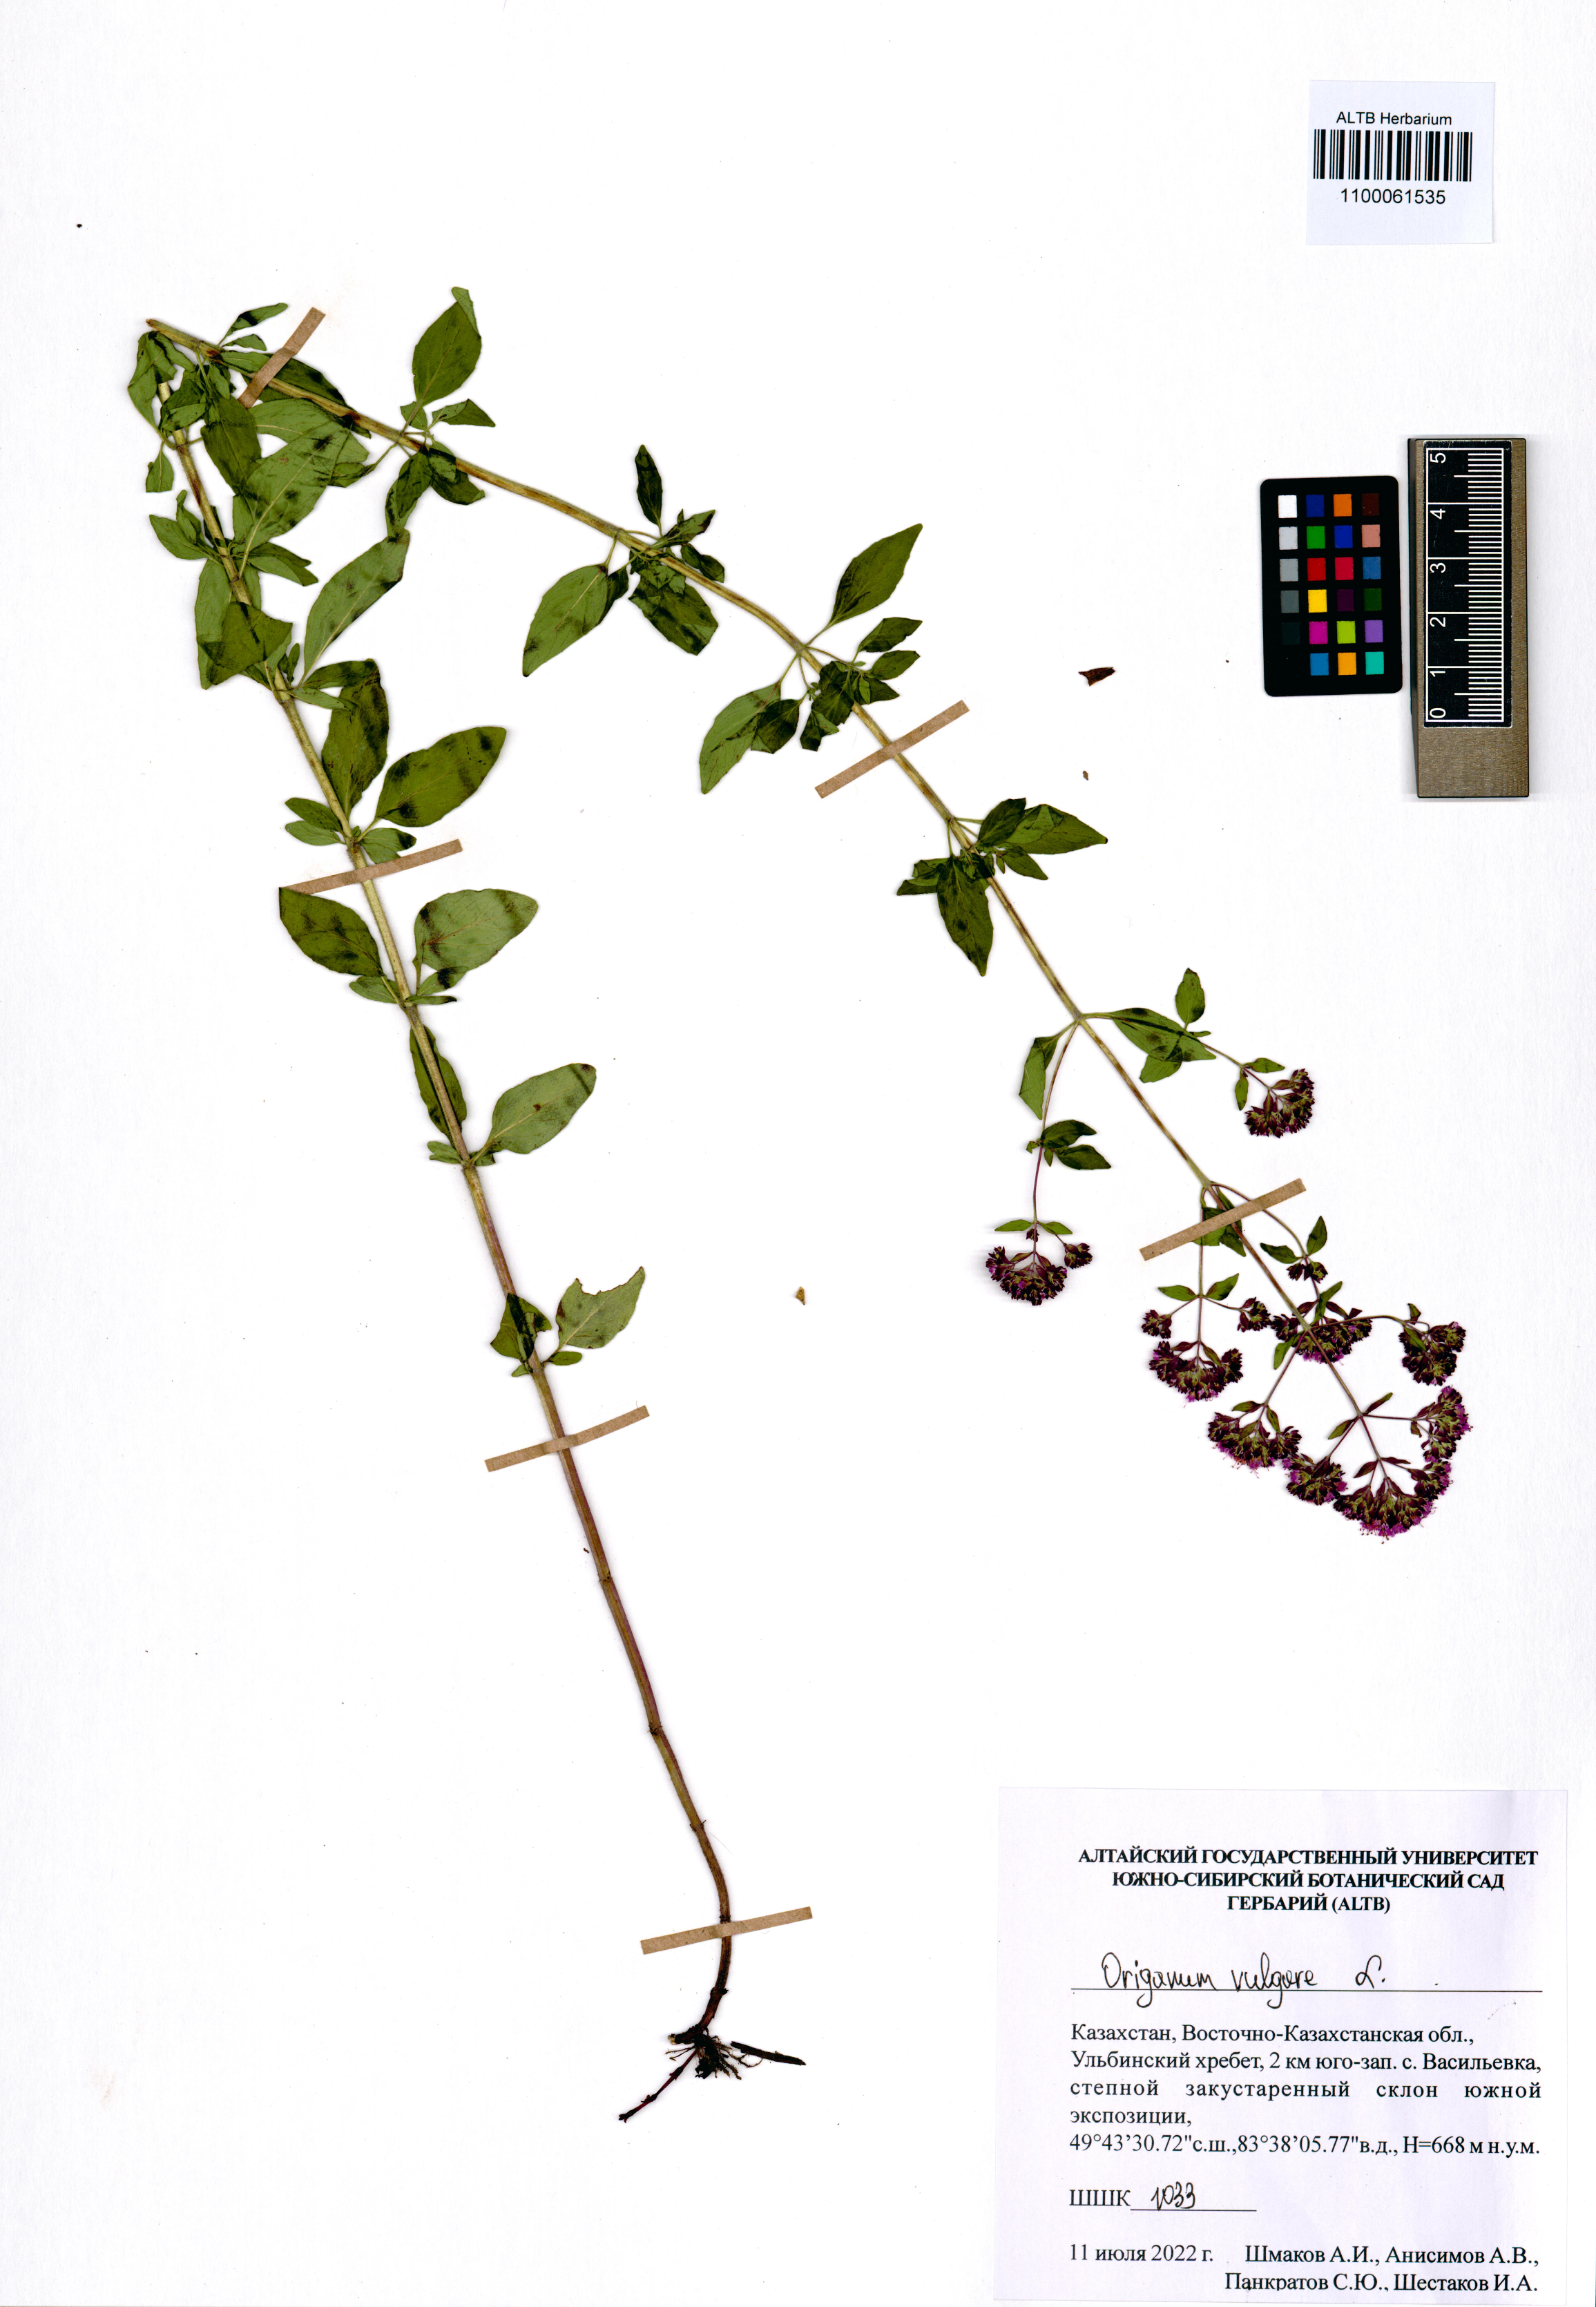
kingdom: Plantae
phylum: Tracheophyta
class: Magnoliopsida
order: Lamiales
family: Lamiaceae
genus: Origanum
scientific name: Origanum vulgare
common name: Wild marjoram
